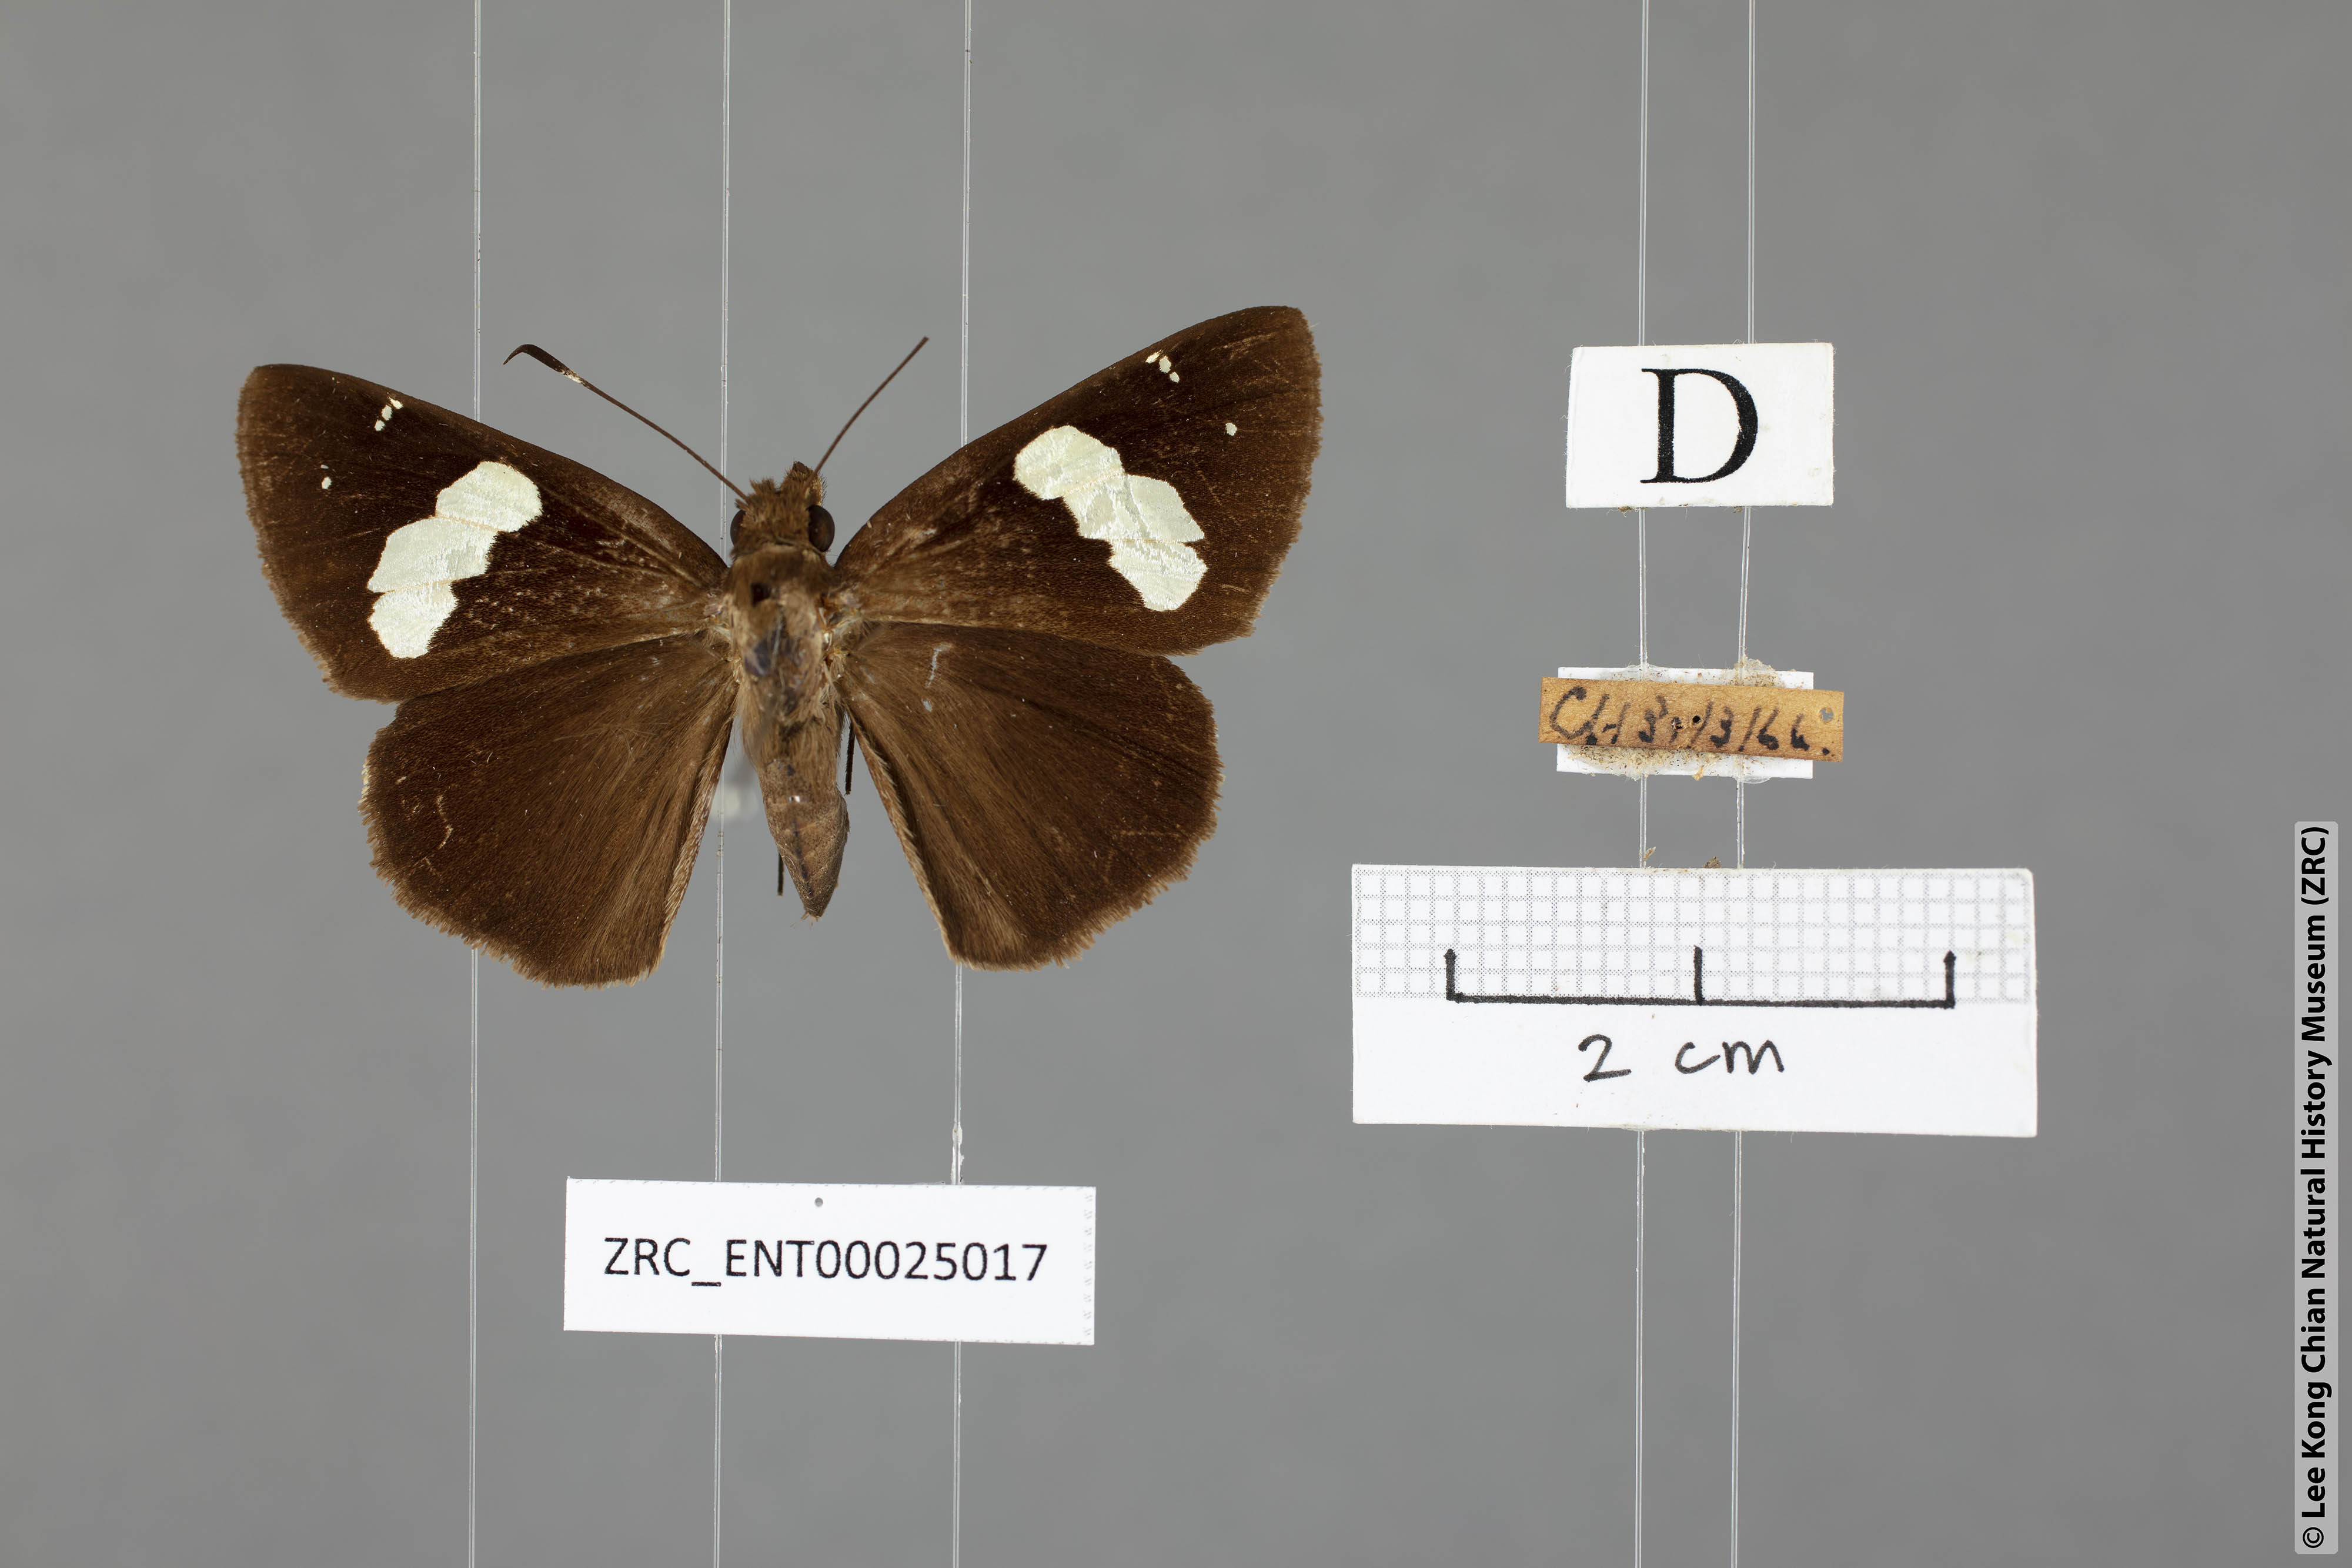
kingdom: Animalia
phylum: Arthropoda
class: Insecta
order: Lepidoptera
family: Hesperiidae
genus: Notocrypta
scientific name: Notocrypta feisthamelii
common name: Spotted demon
